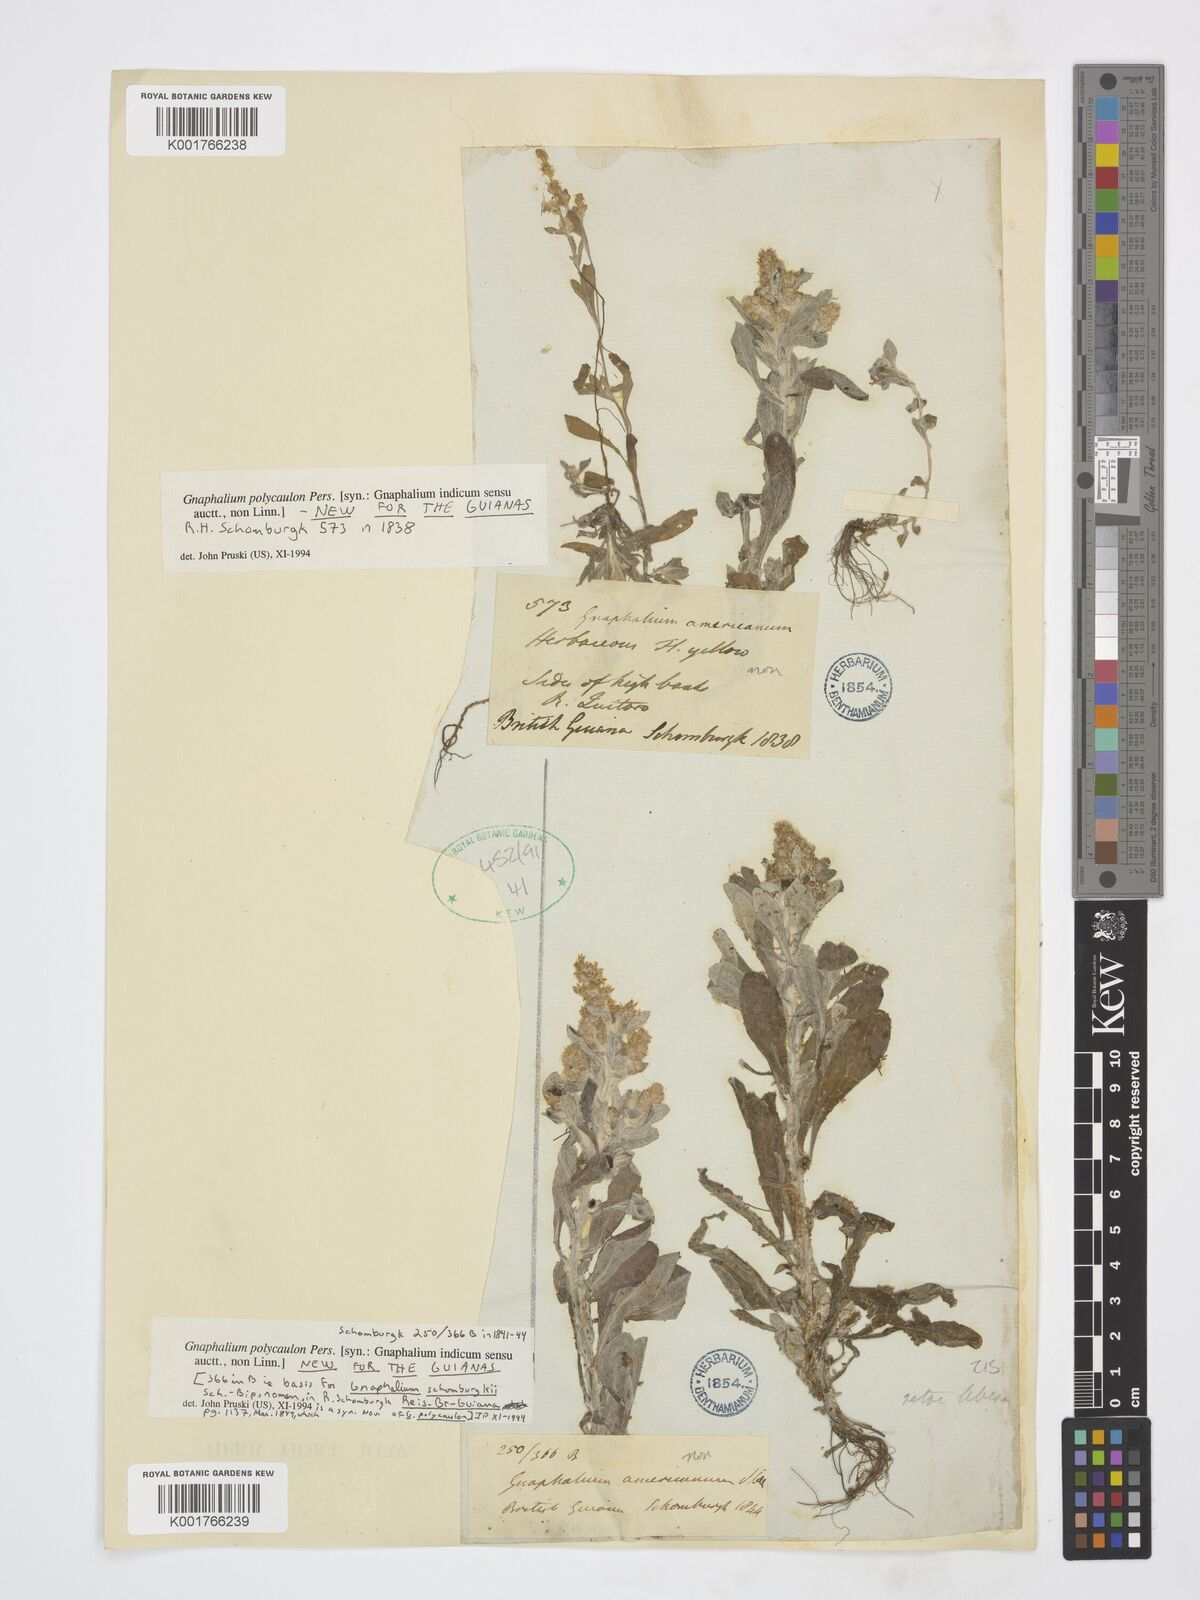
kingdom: Plantae
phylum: Tracheophyta
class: Magnoliopsida
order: Asterales
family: Asteraceae
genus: Gnaphalium
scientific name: Gnaphalium polycaulon
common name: Western cudweed
